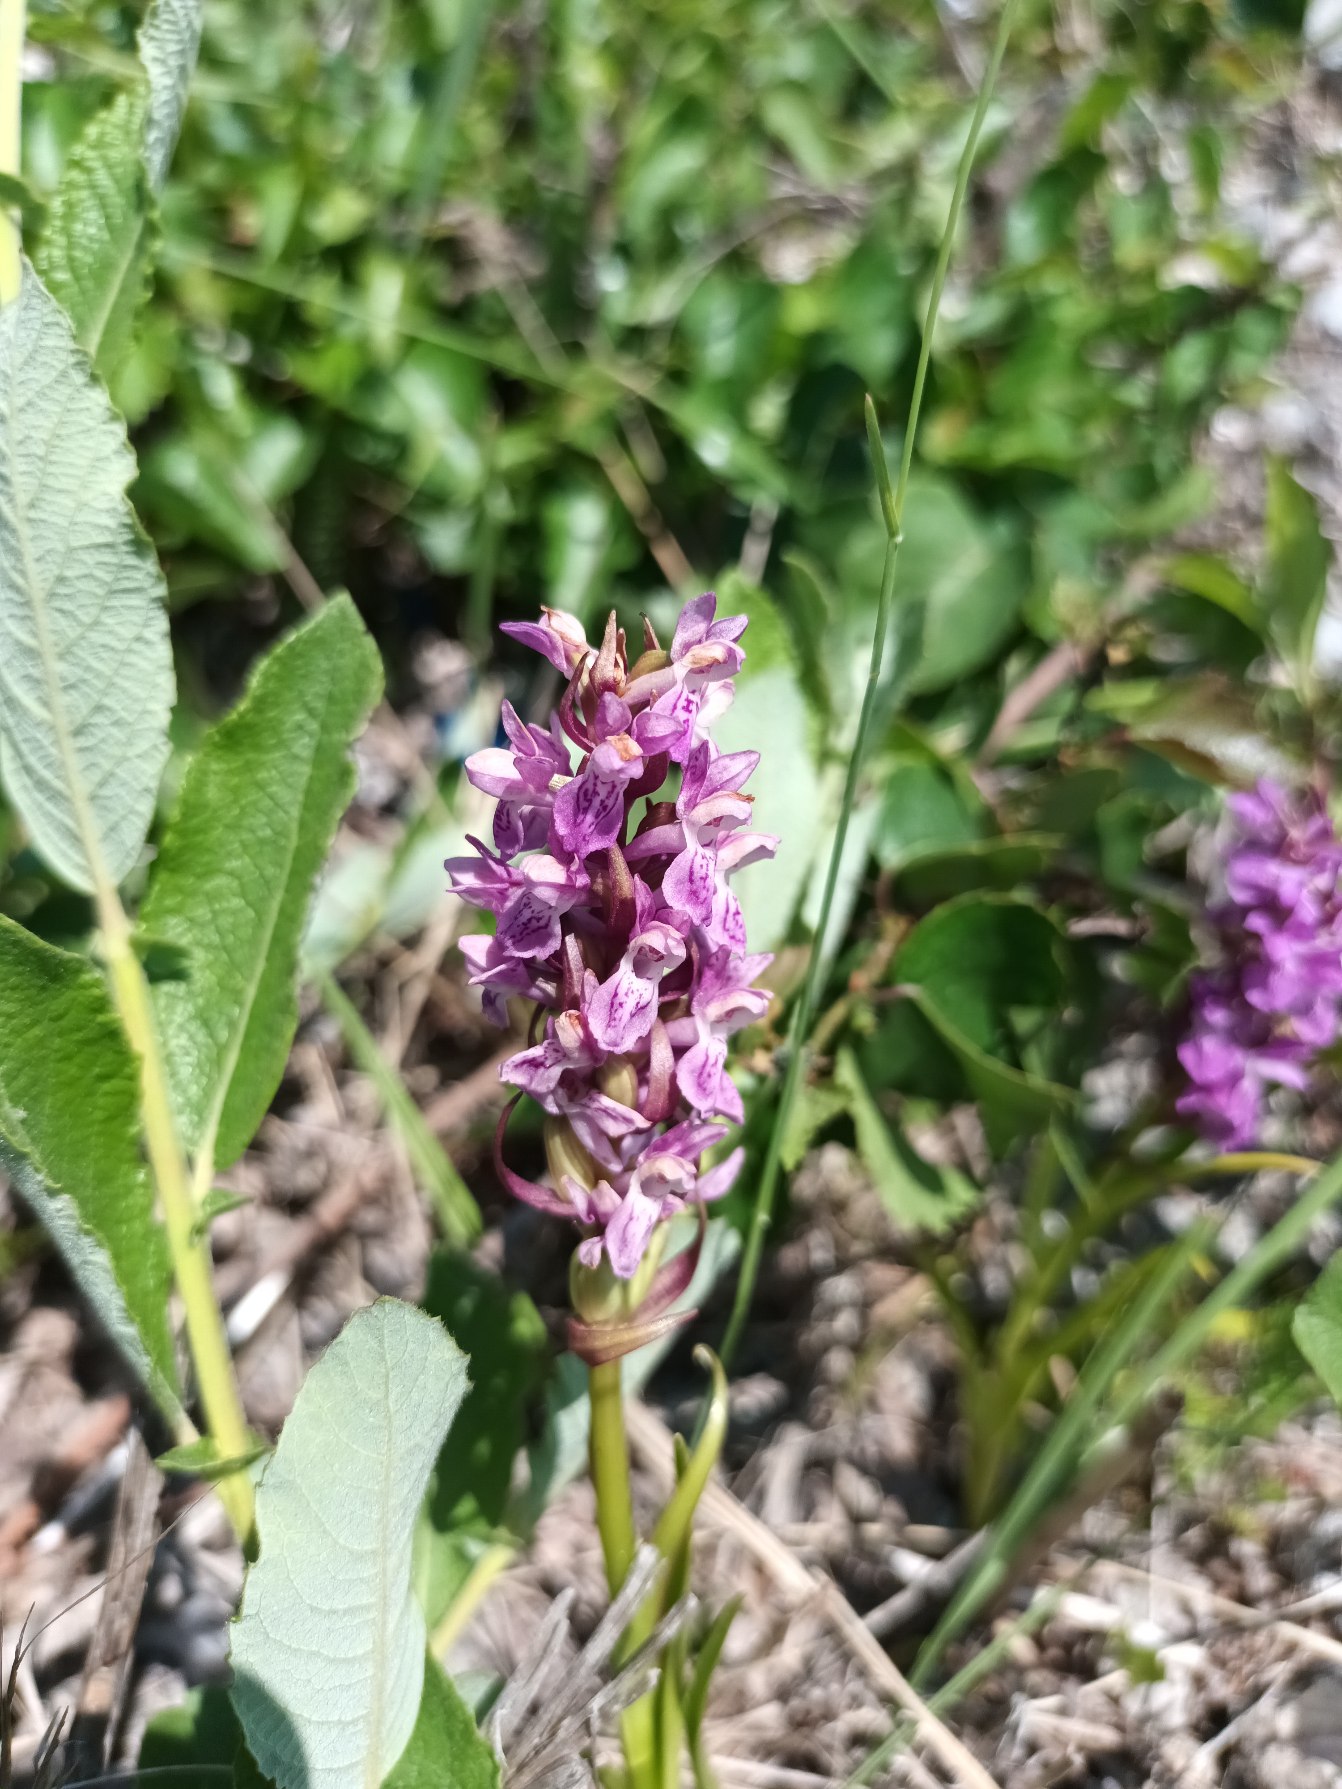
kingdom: Plantae
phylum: Tracheophyta
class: Liliopsida
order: Asparagales
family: Orchidaceae
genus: Dactylorhiza
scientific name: Dactylorhiza incarnata
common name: Kødfarvet gøgeurt
